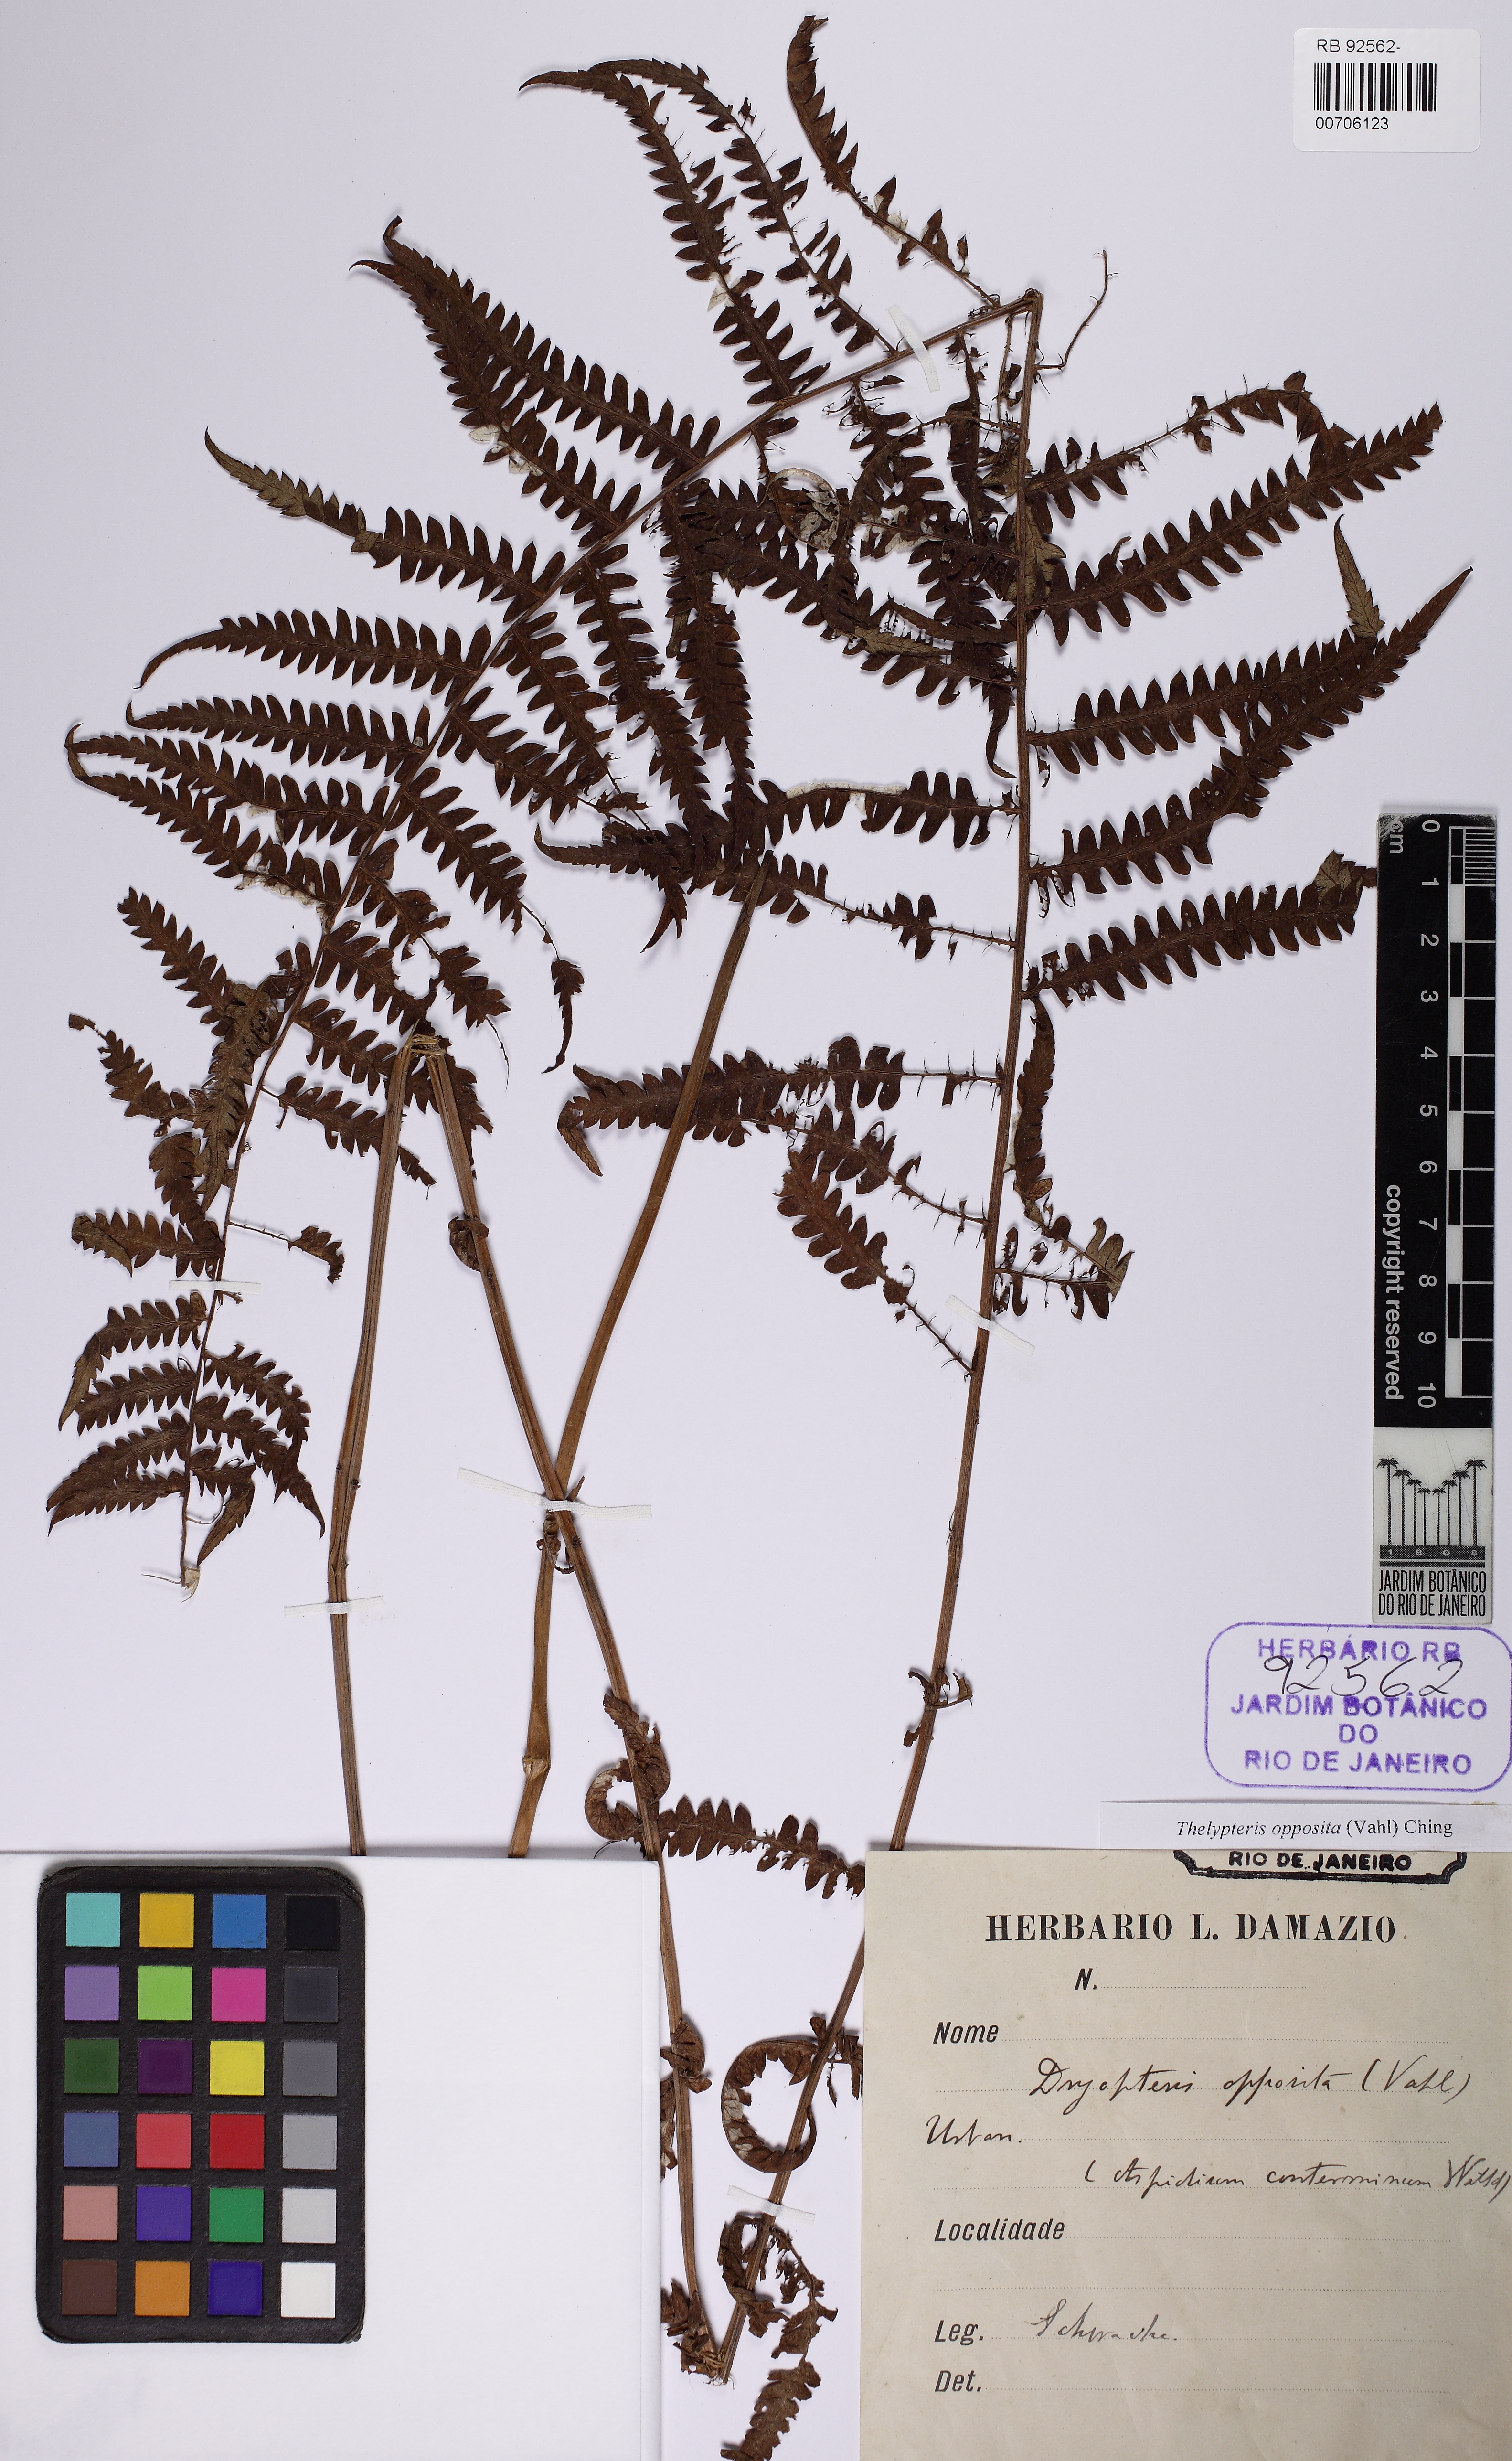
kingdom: Plantae
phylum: Tracheophyta
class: Polypodiopsida
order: Polypodiales
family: Thelypteridaceae
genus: Amauropelta
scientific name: Amauropelta opposita
